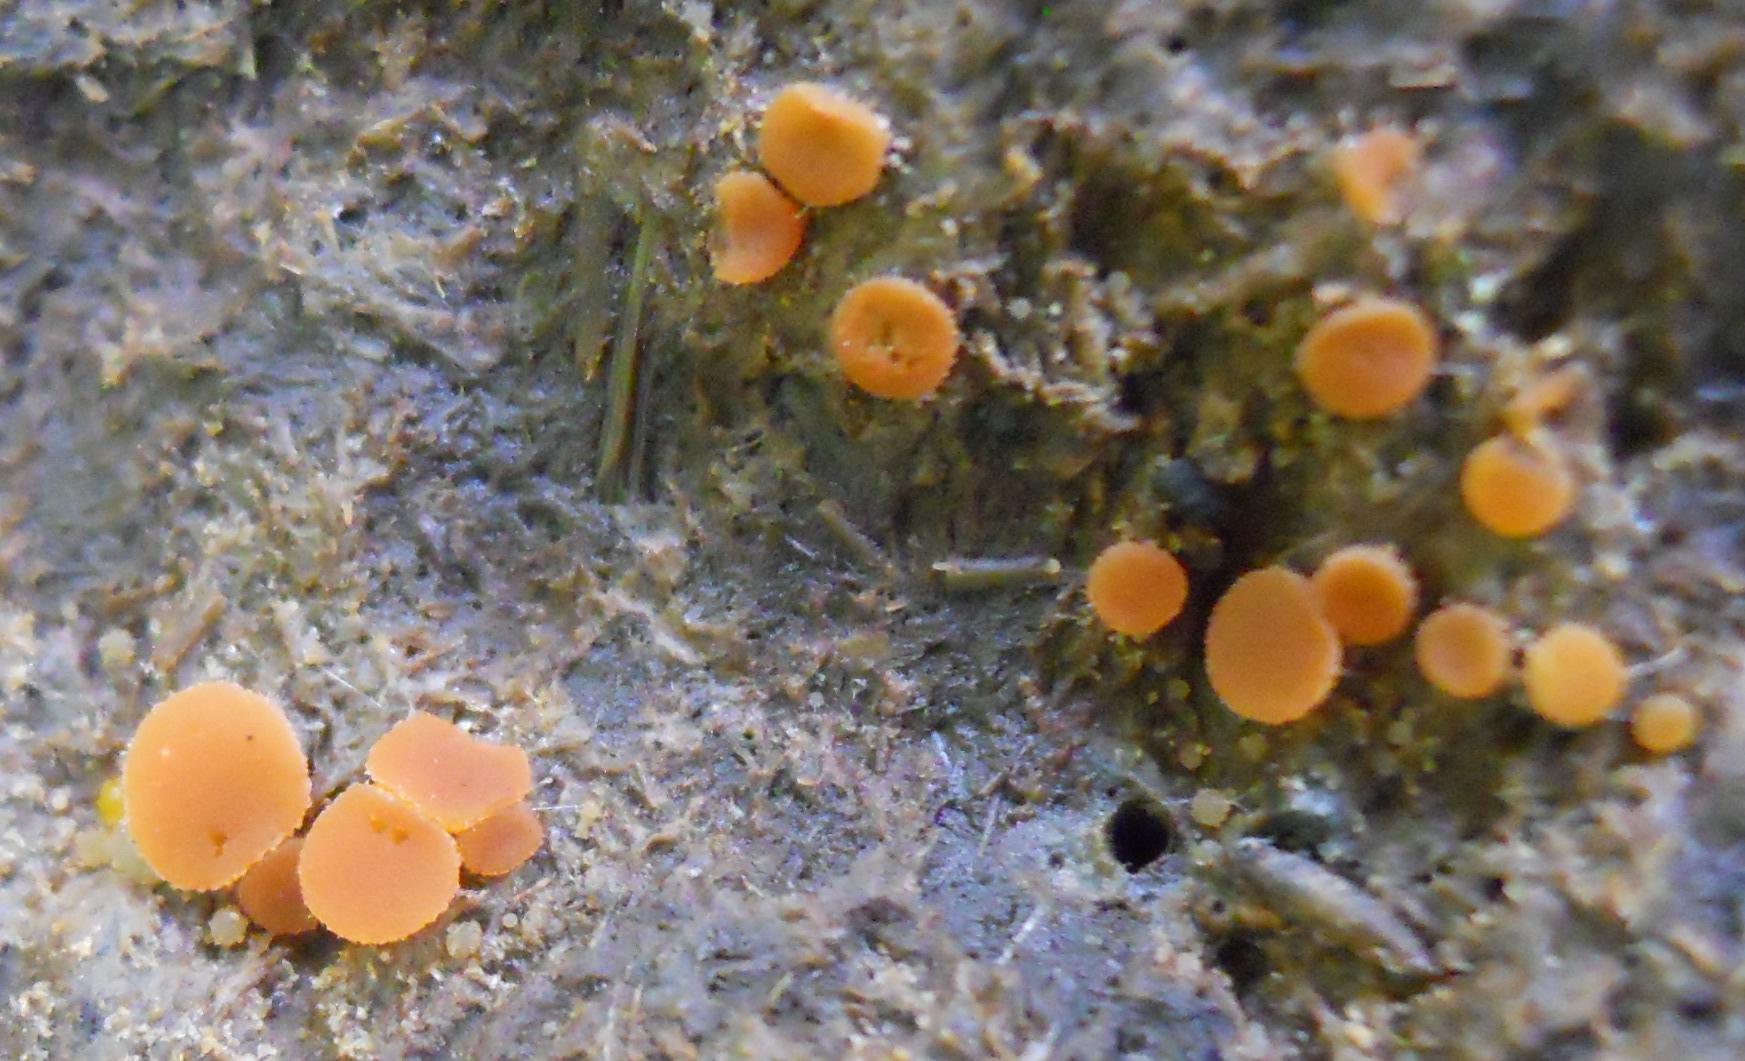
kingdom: Fungi
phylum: Ascomycota
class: Pezizomycetes
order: Pezizales
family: Pyronemataceae
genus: Cheilymenia
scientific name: Cheilymenia granulata
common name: møgbæger
